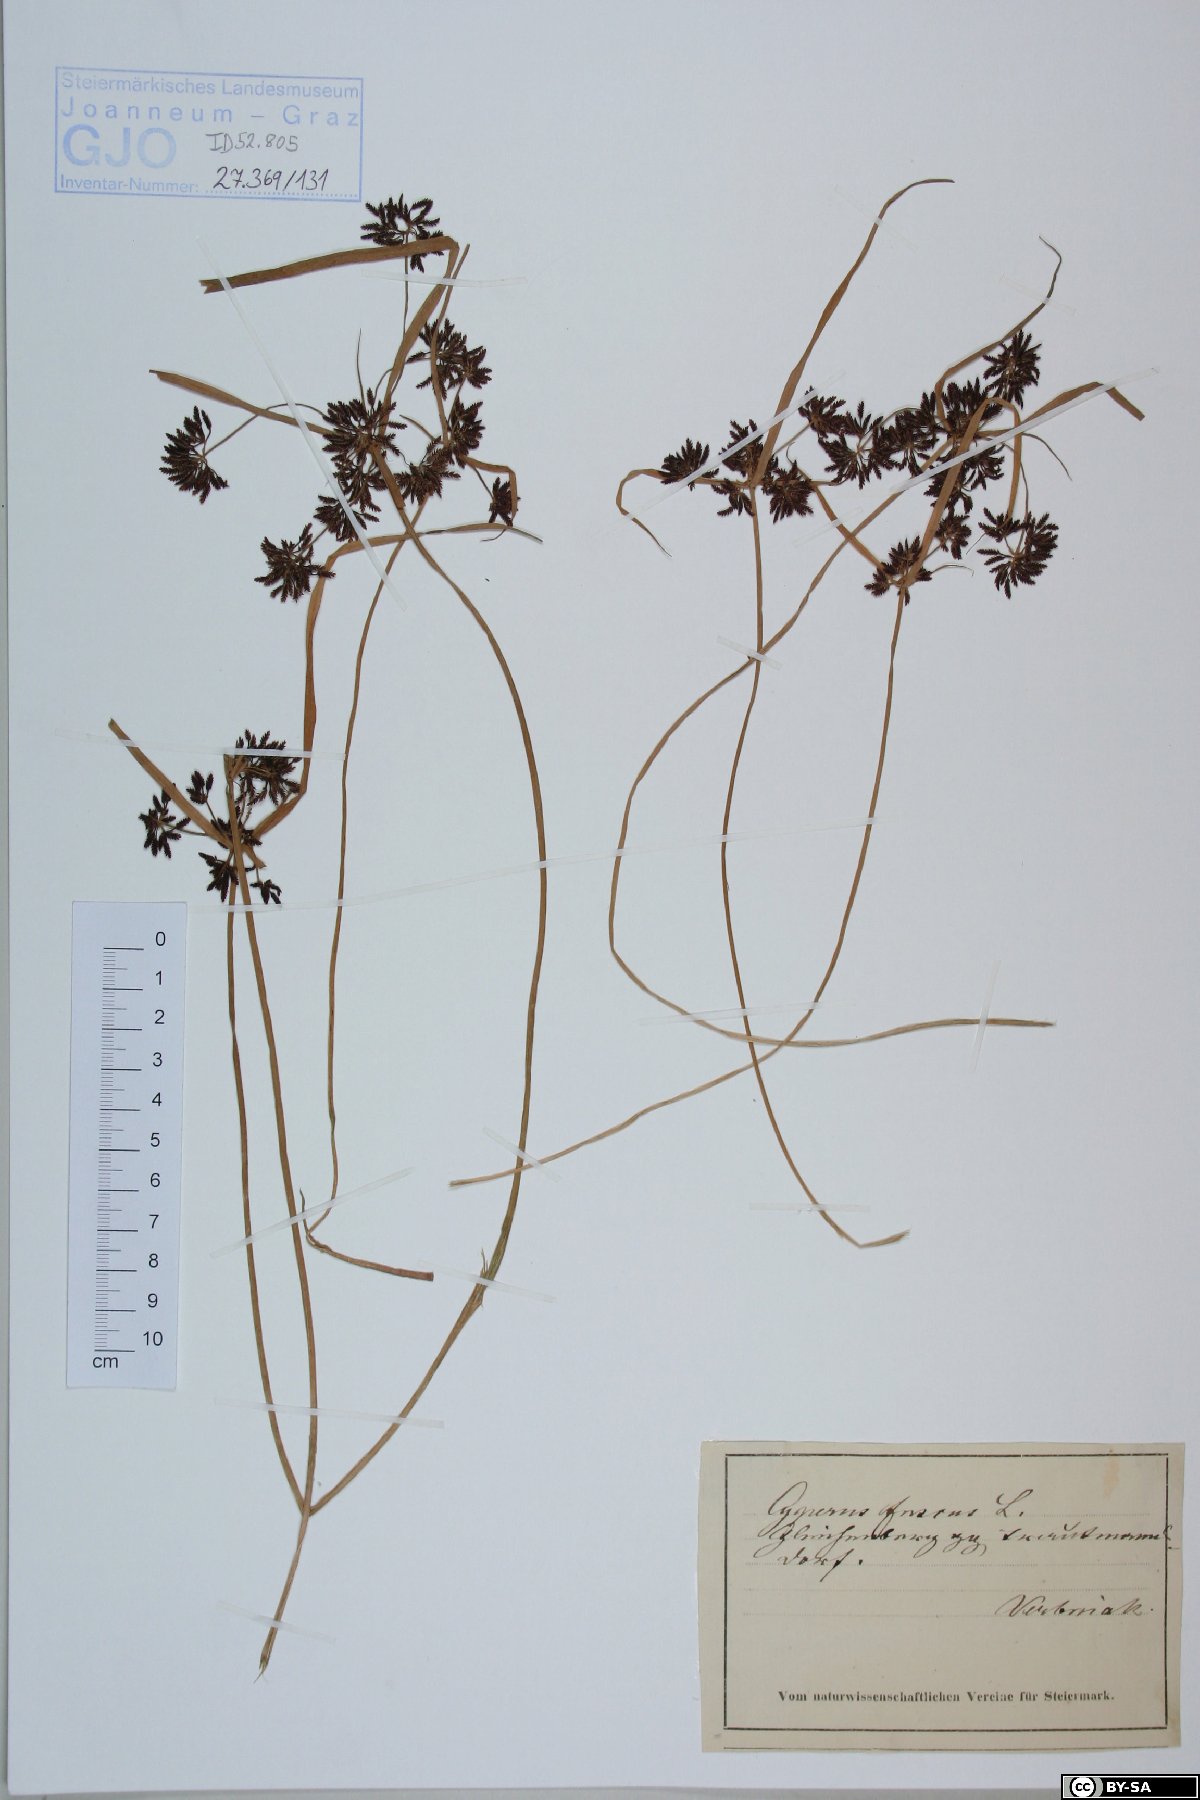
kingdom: Plantae
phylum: Tracheophyta
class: Liliopsida
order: Poales
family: Cyperaceae
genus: Cyperus
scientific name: Cyperus fuscus
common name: Brown galingale
